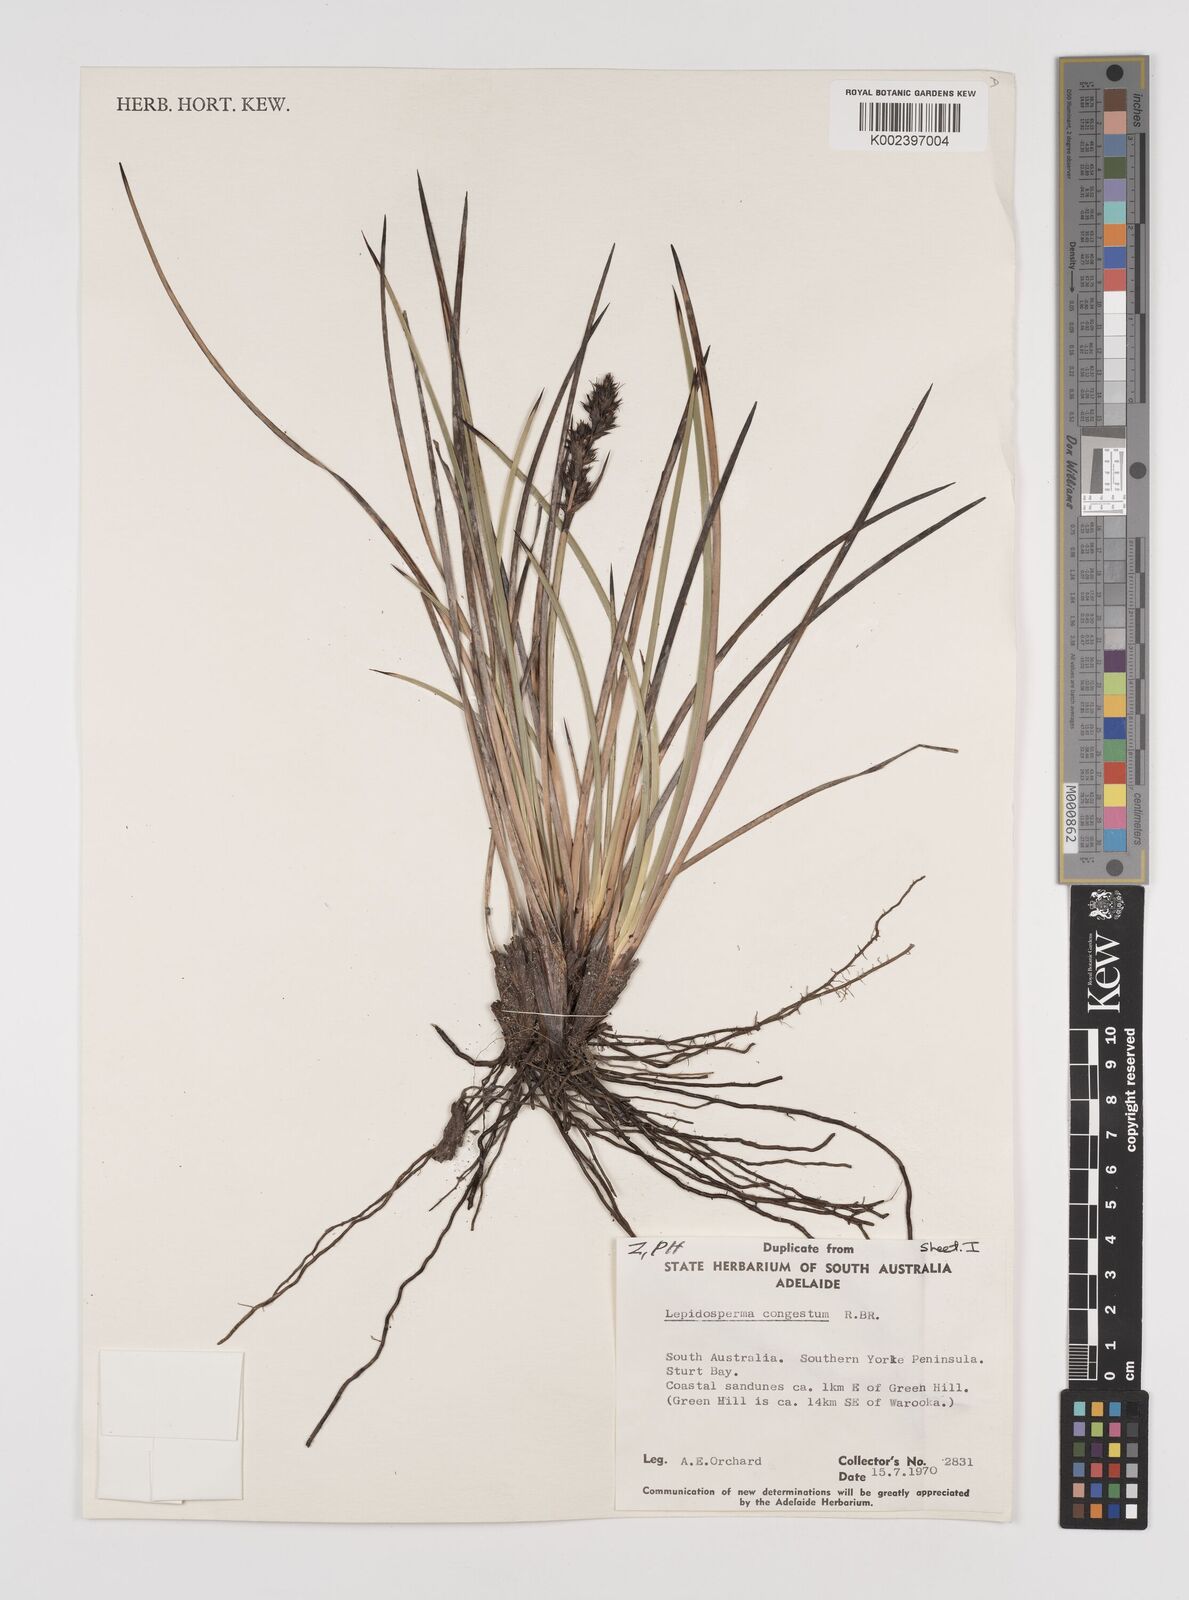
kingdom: Plantae
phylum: Tracheophyta
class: Liliopsida
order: Poales
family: Cyperaceae
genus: Lepidosperma
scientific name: Lepidosperma congestum
